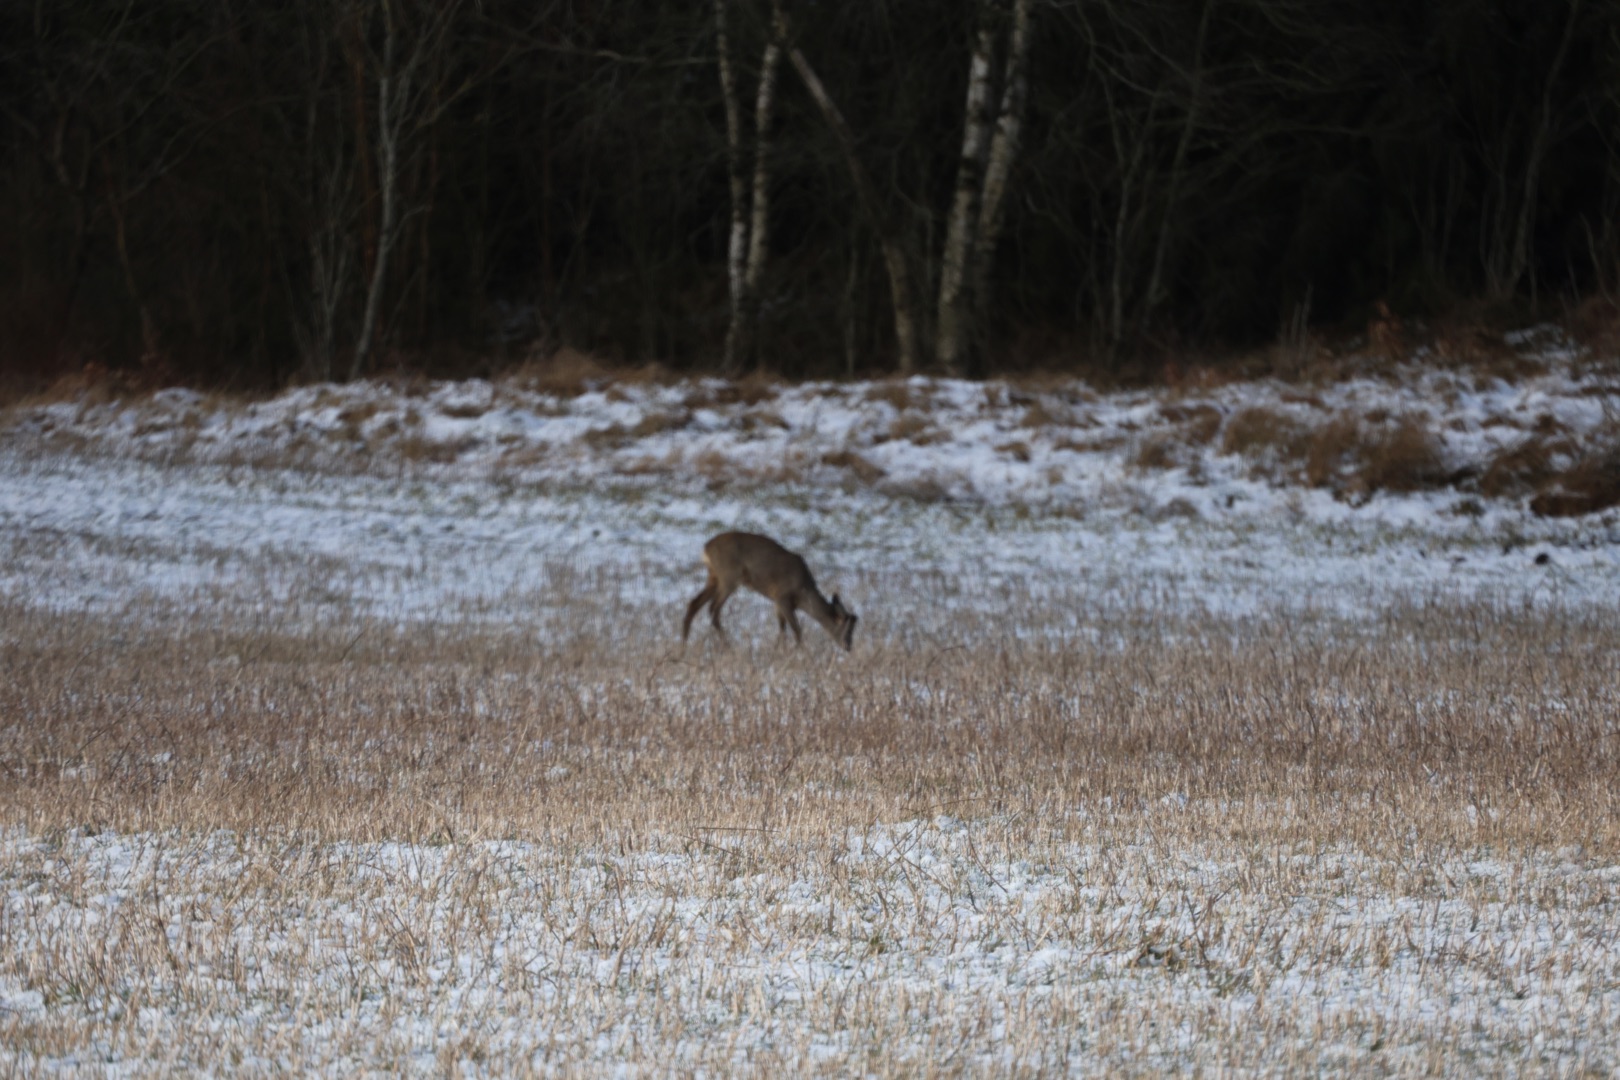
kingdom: Animalia
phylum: Chordata
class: Mammalia
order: Artiodactyla
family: Cervidae
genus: Capreolus
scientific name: Capreolus capreolus
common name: Rådyr
